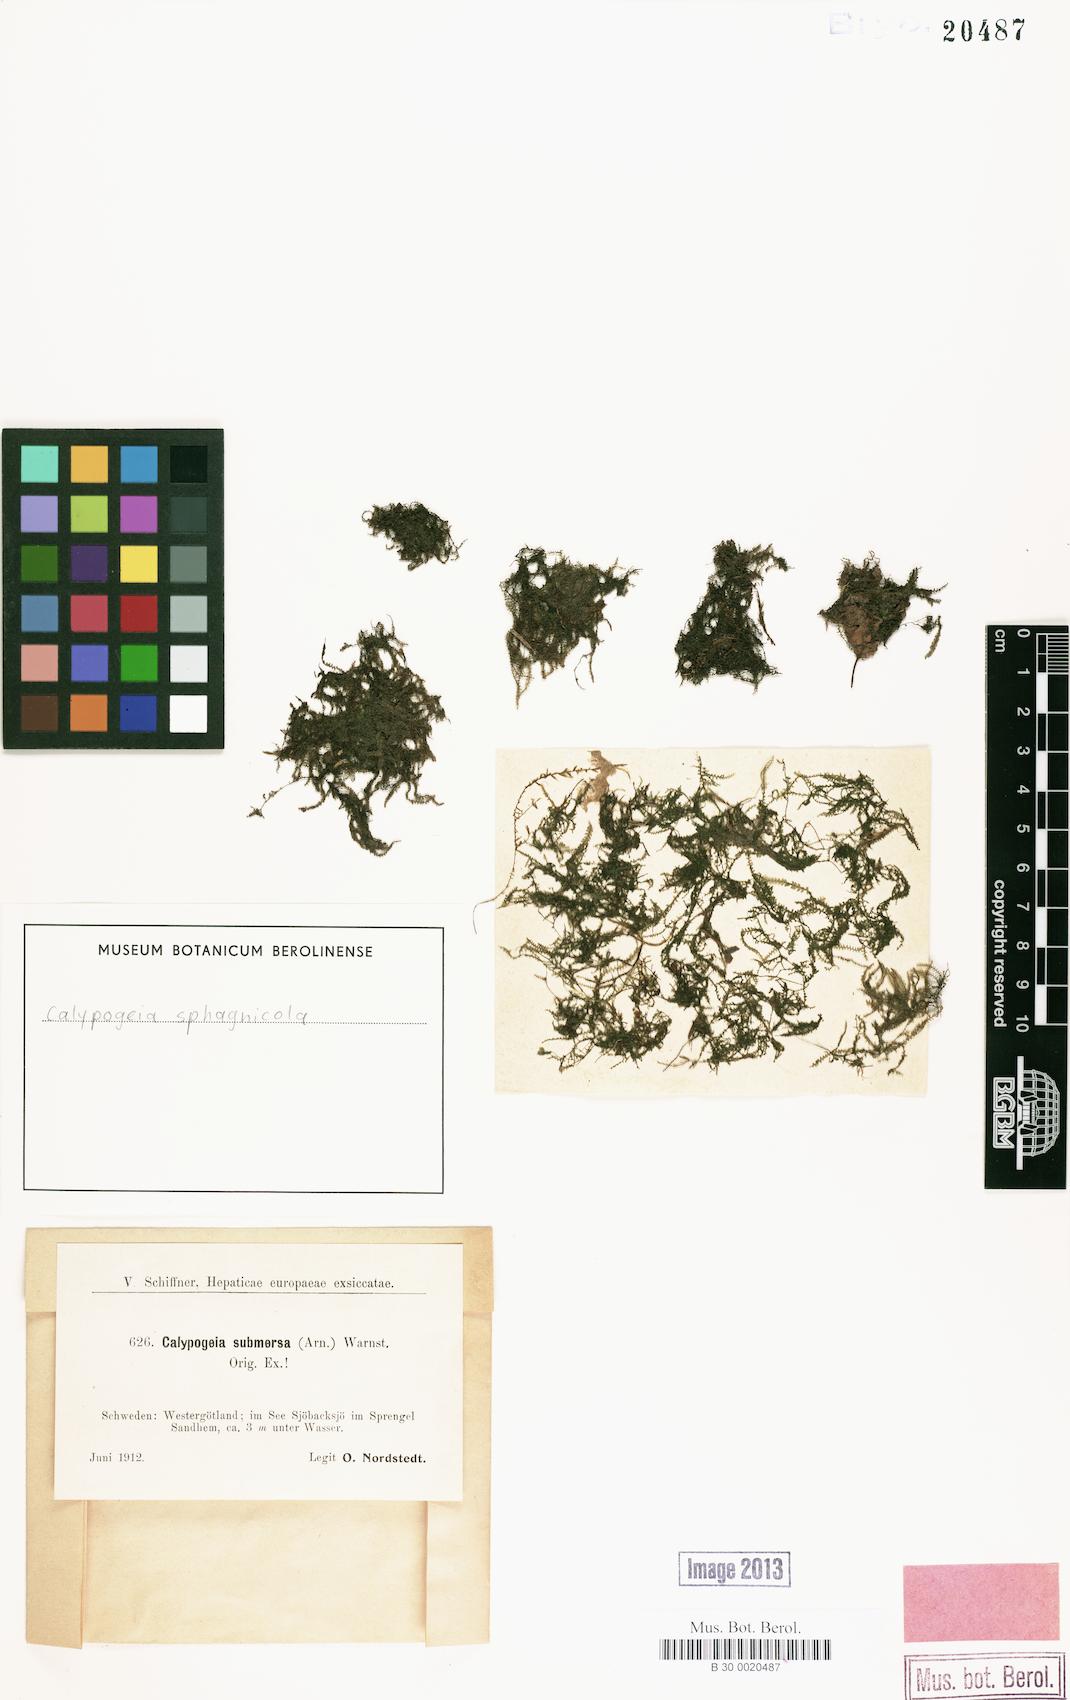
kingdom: Plantae
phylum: Marchantiophyta
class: Jungermanniopsida
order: Jungermanniales
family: Calypogeiaceae
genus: Calypogeia
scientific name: Calypogeia sphagnicola
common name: Bog pouchwort
